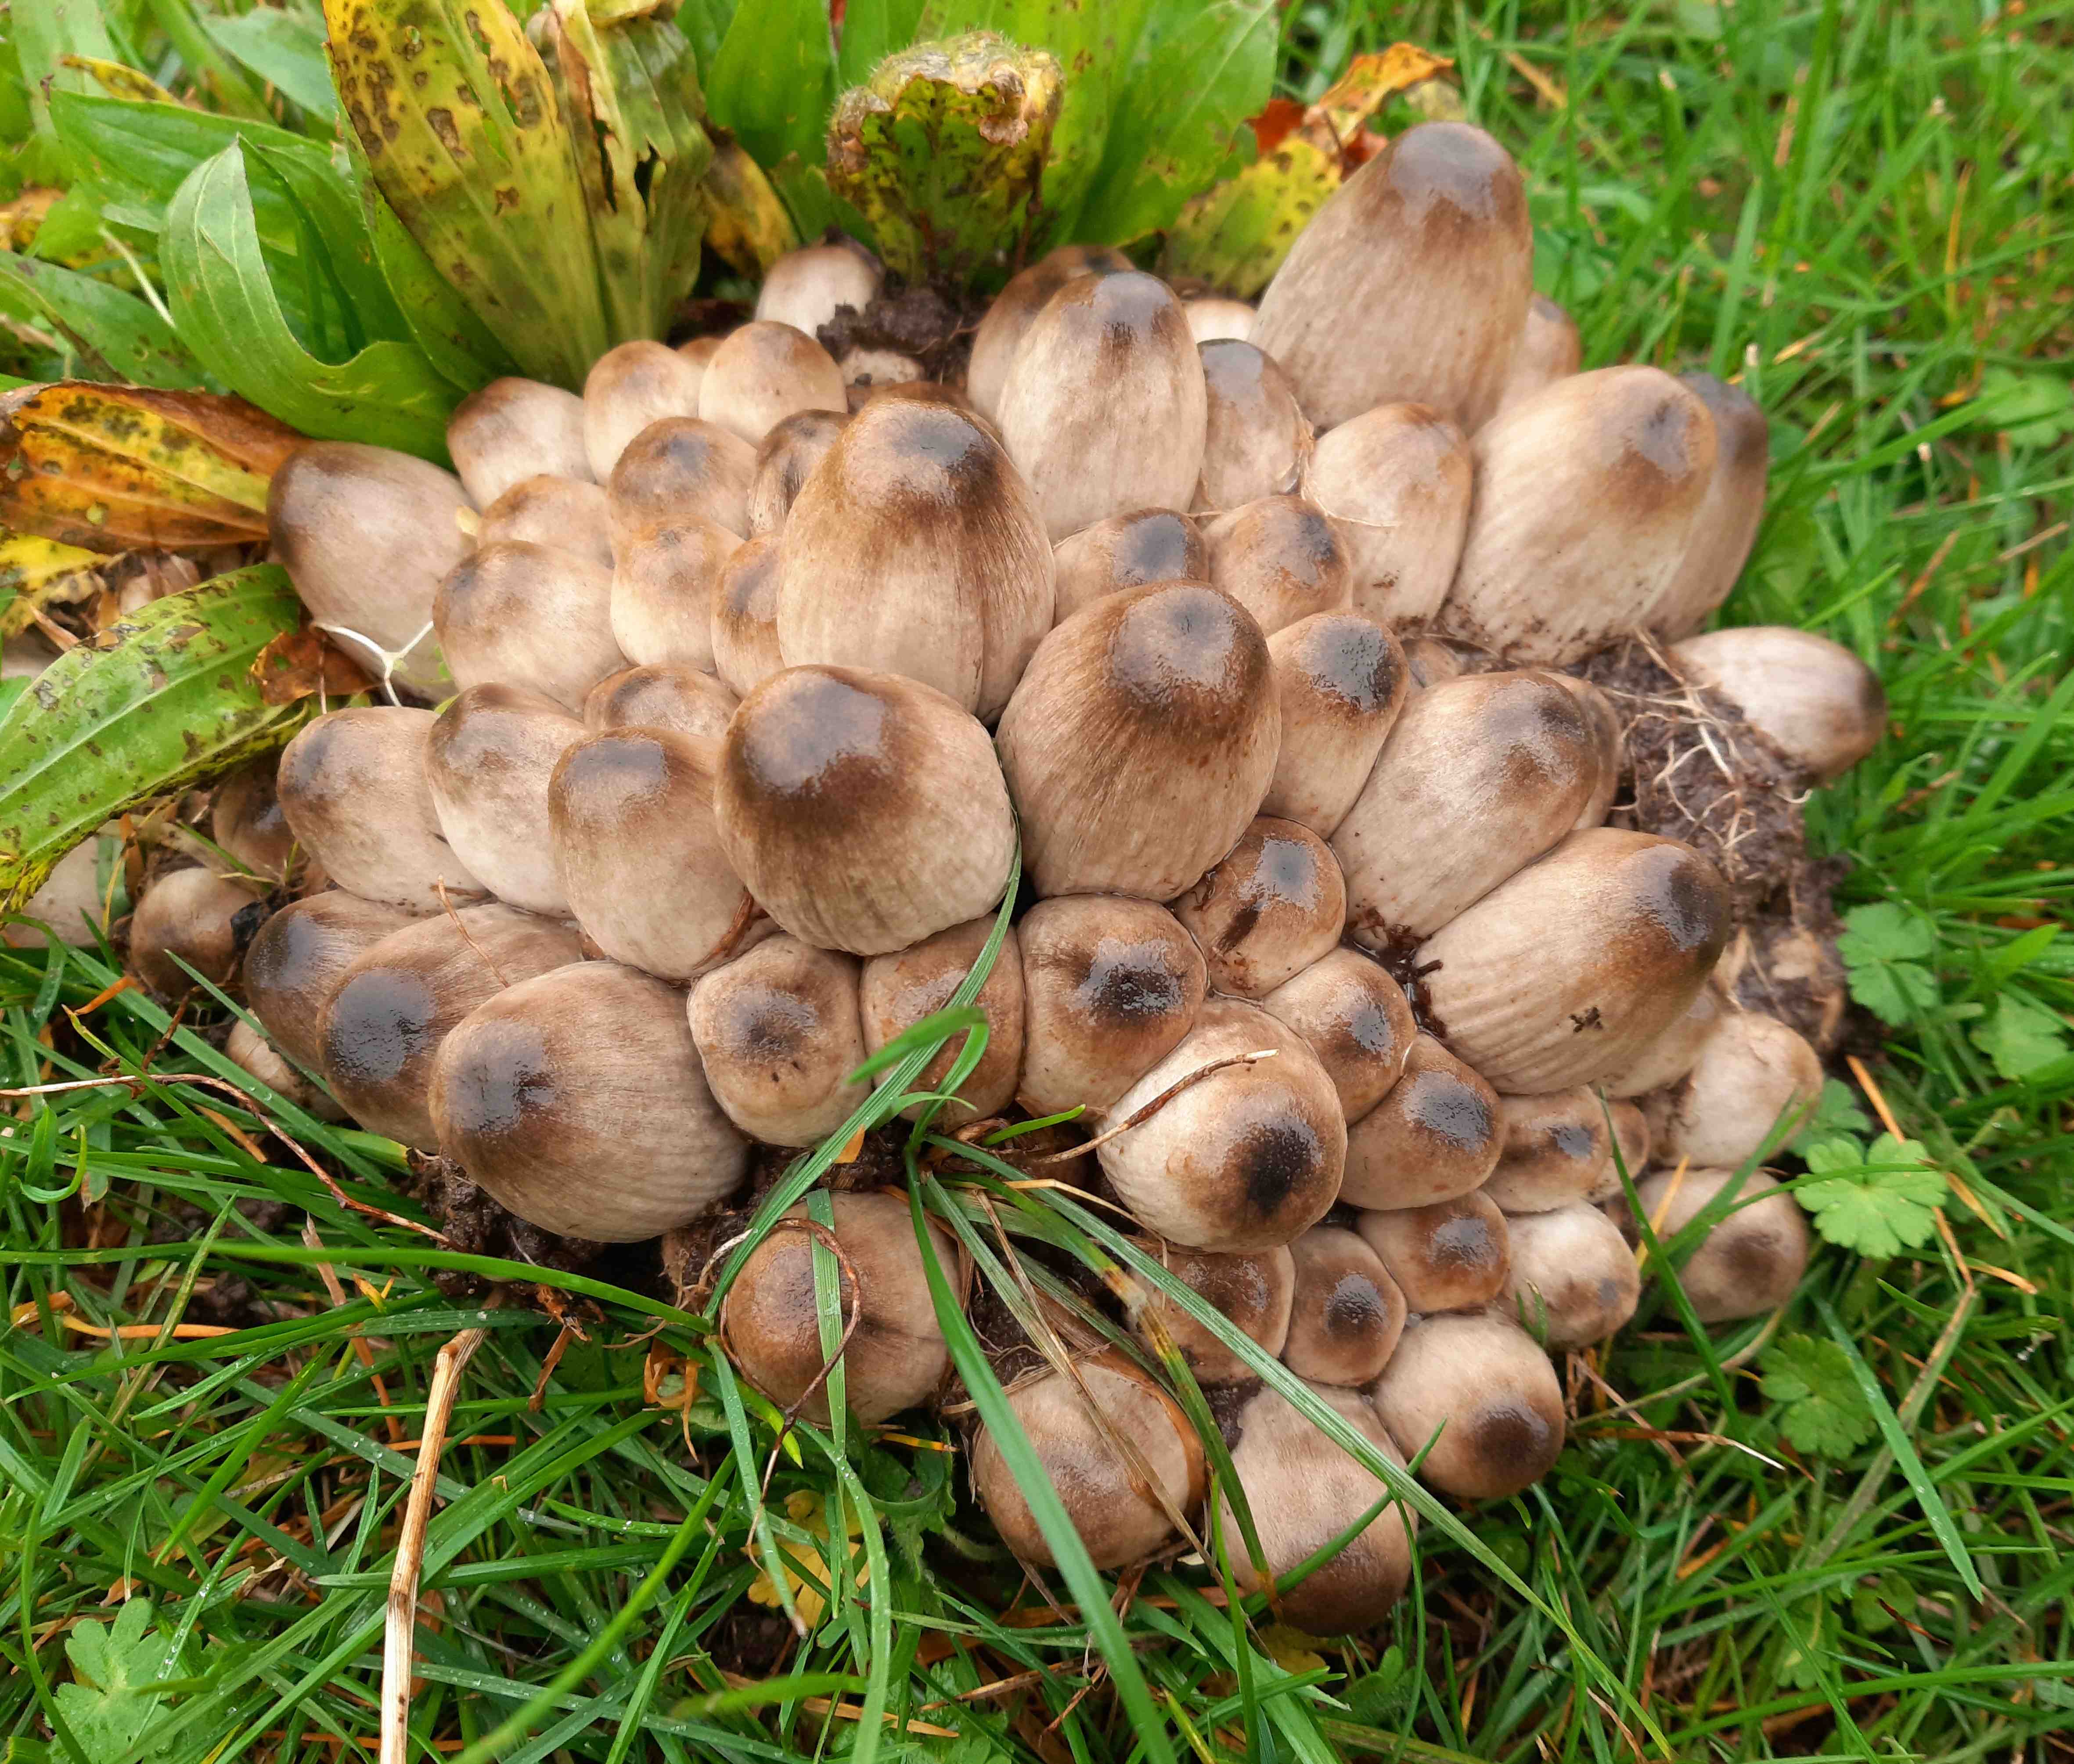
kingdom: Fungi
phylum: Basidiomycota
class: Agaricomycetes
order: Agaricales
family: Psathyrellaceae
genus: Coprinopsis
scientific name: Coprinopsis
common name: blækhat
